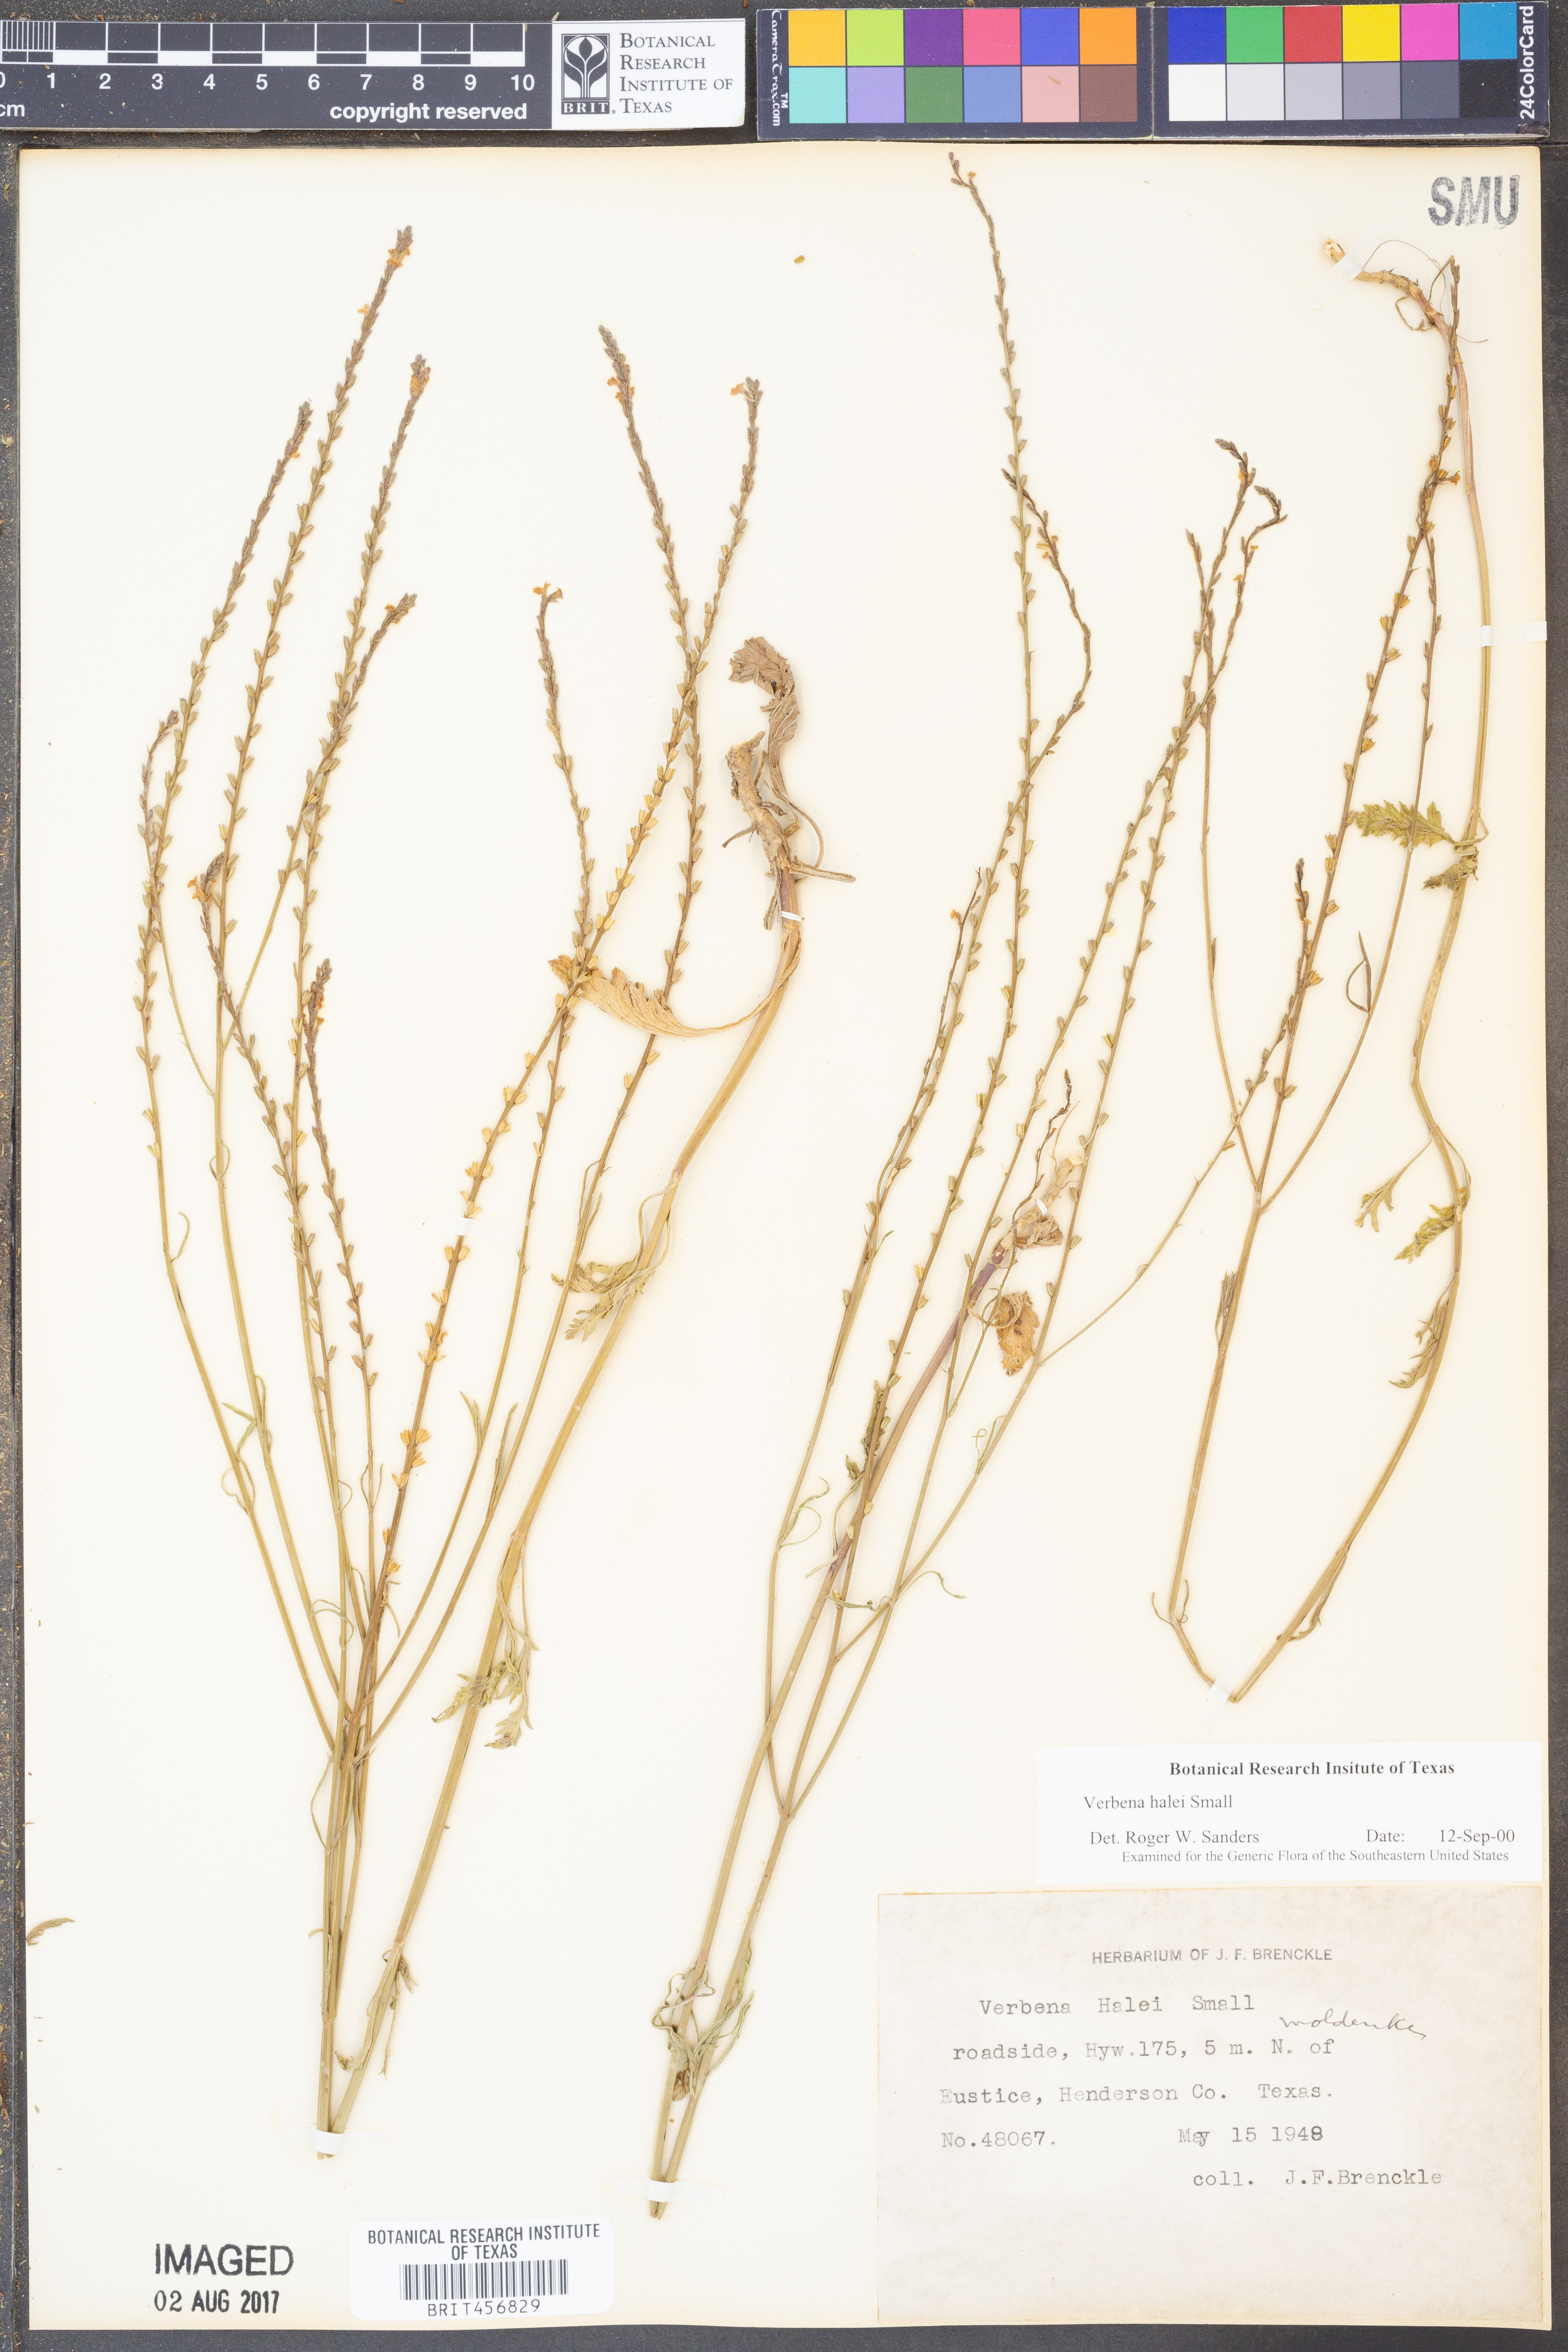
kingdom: Plantae
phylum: Tracheophyta
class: Magnoliopsida
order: Lamiales
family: Verbenaceae
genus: Verbena
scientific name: Verbena halei
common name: Texas vervain
